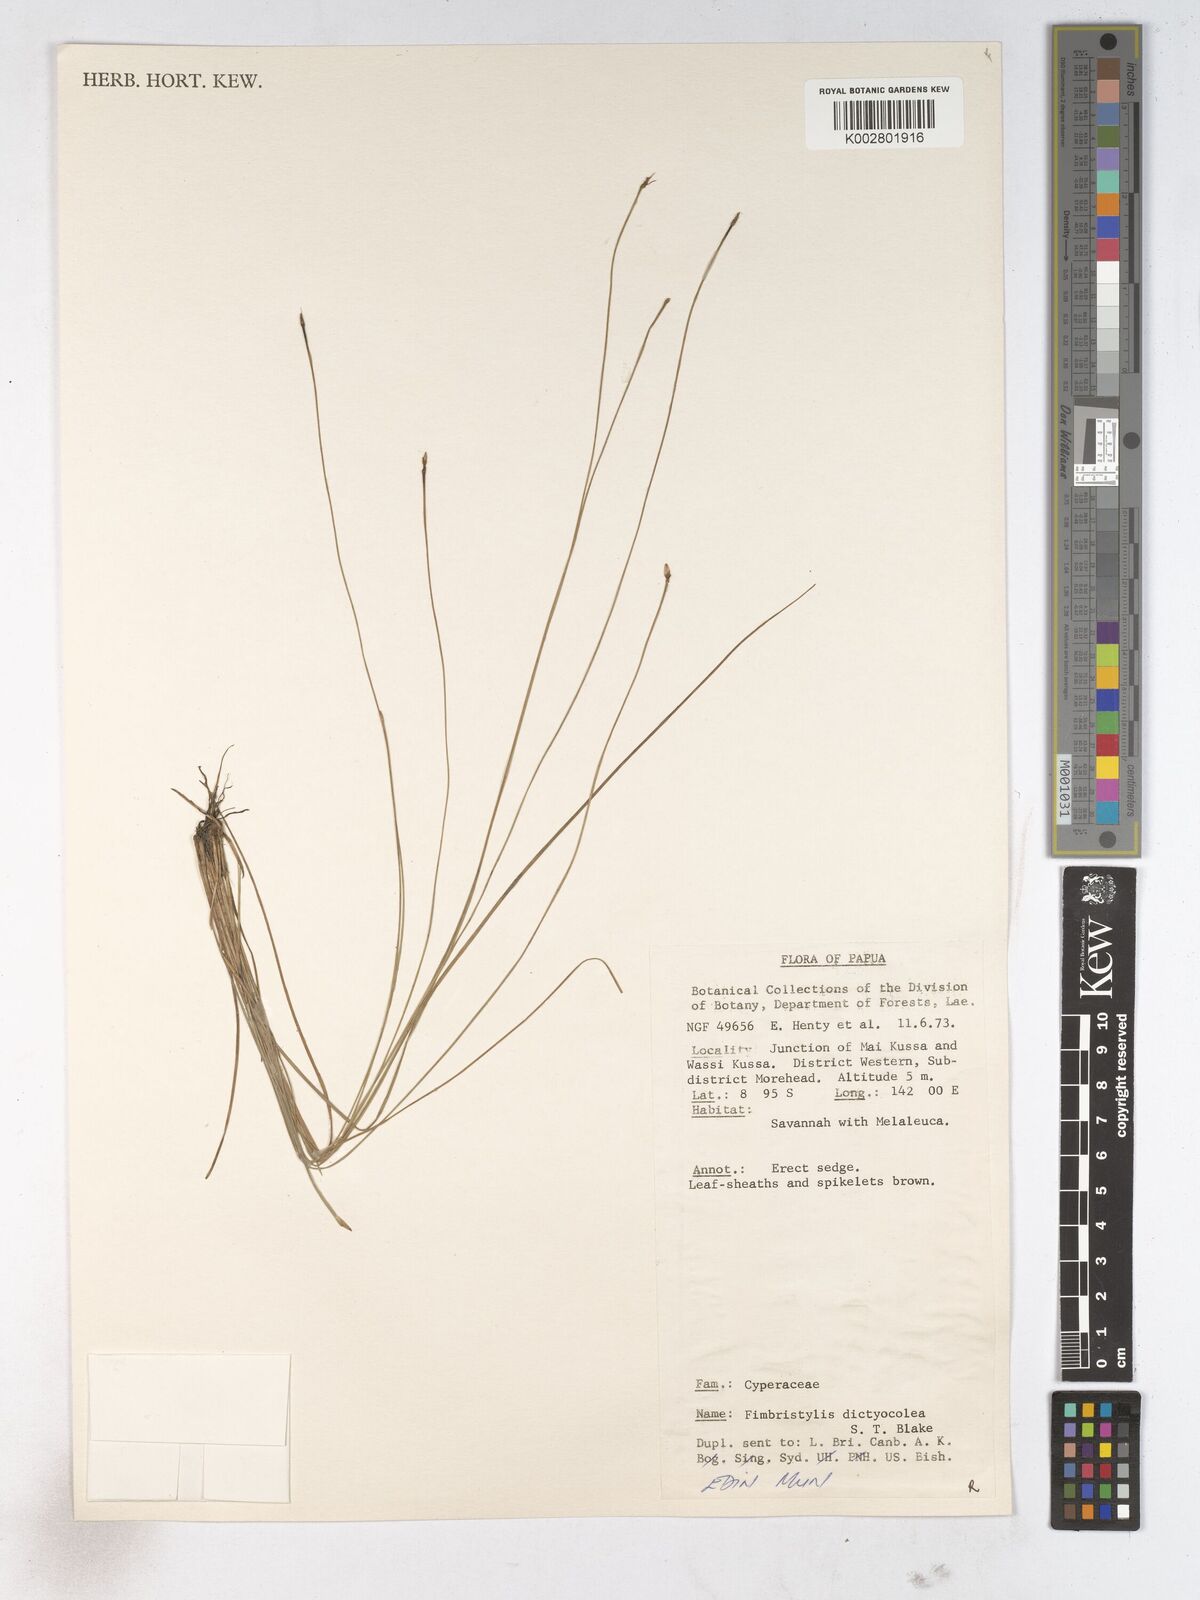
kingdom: Plantae
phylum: Tracheophyta
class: Liliopsida
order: Poales
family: Cyperaceae
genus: Fimbristylis
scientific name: Fimbristylis dictyocolea
